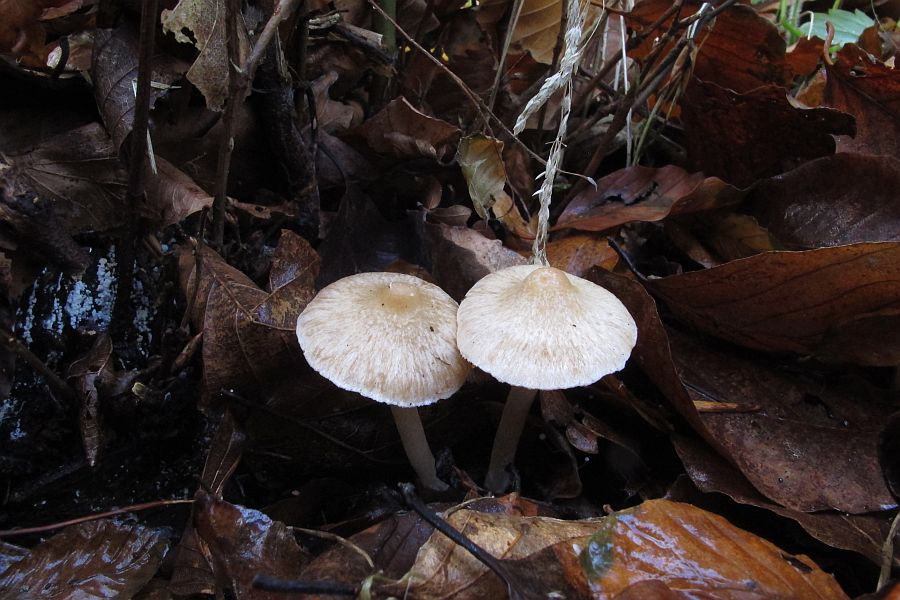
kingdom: Fungi
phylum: Basidiomycota
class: Agaricomycetes
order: Agaricales
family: Inocybaceae
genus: Inocybe
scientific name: Inocybe sindonia
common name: bleg trævlhat
